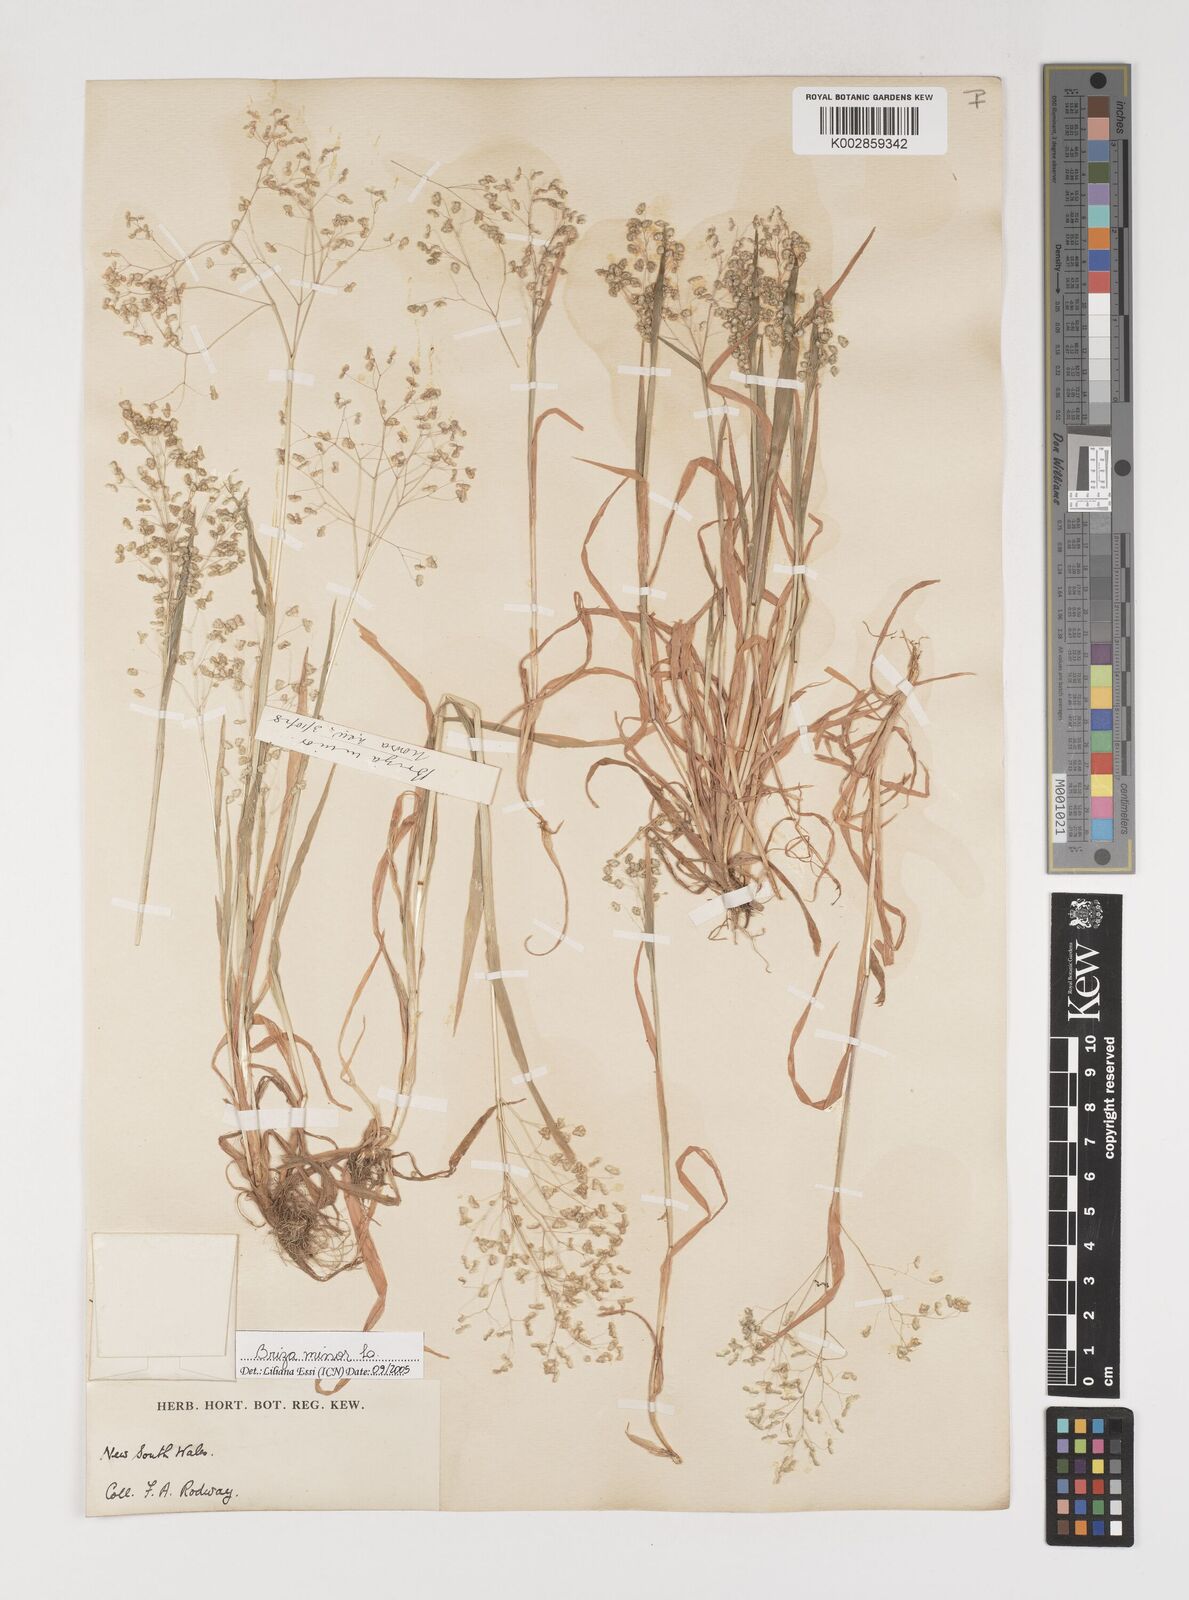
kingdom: Plantae
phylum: Tracheophyta
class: Liliopsida
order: Poales
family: Poaceae
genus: Briza
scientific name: Briza minor
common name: Lesser quaking-grass
